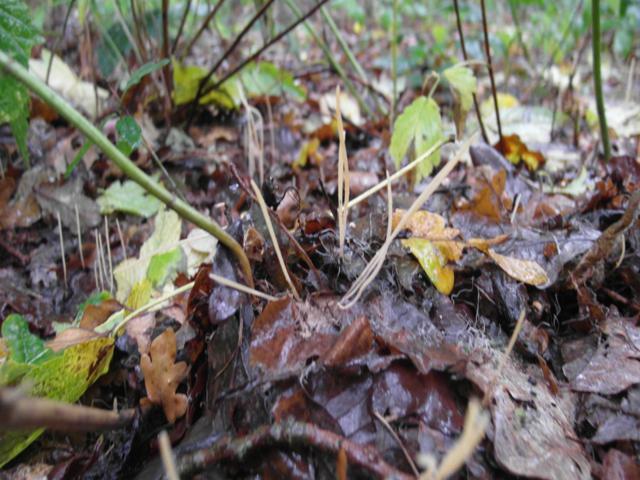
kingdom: Fungi
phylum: Basidiomycota
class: Agaricomycetes
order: Agaricales
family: Typhulaceae
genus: Typhula
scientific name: Typhula juncea
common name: trådagtig rørkølle
